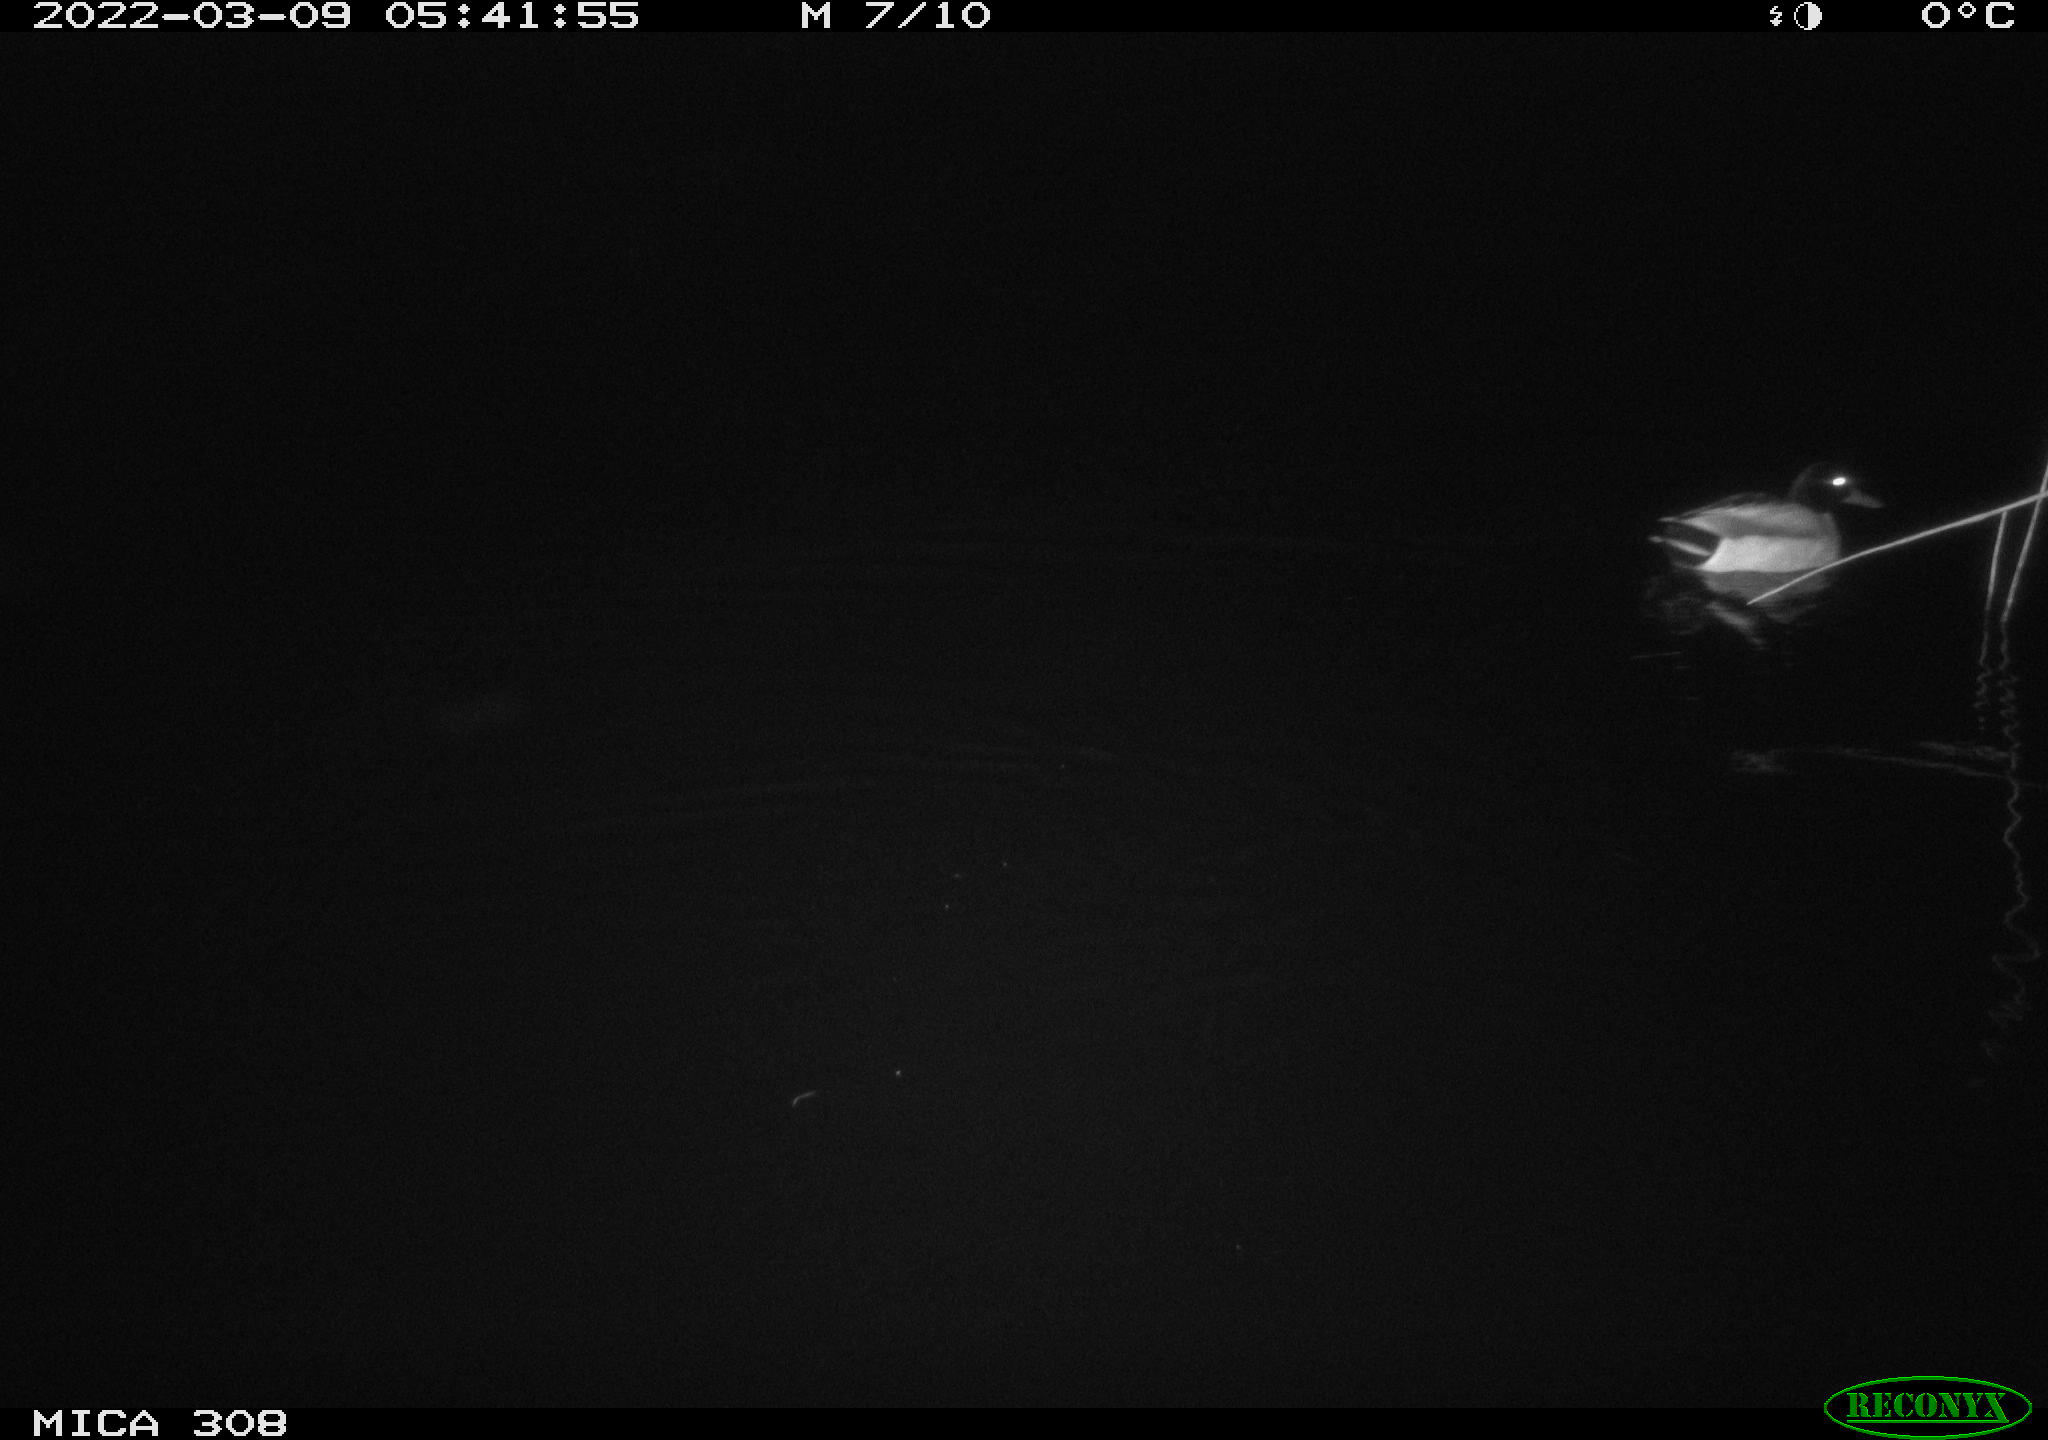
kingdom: Animalia
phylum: Chordata
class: Aves
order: Anseriformes
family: Anatidae
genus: Anas
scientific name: Anas platyrhynchos
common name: Mallard
